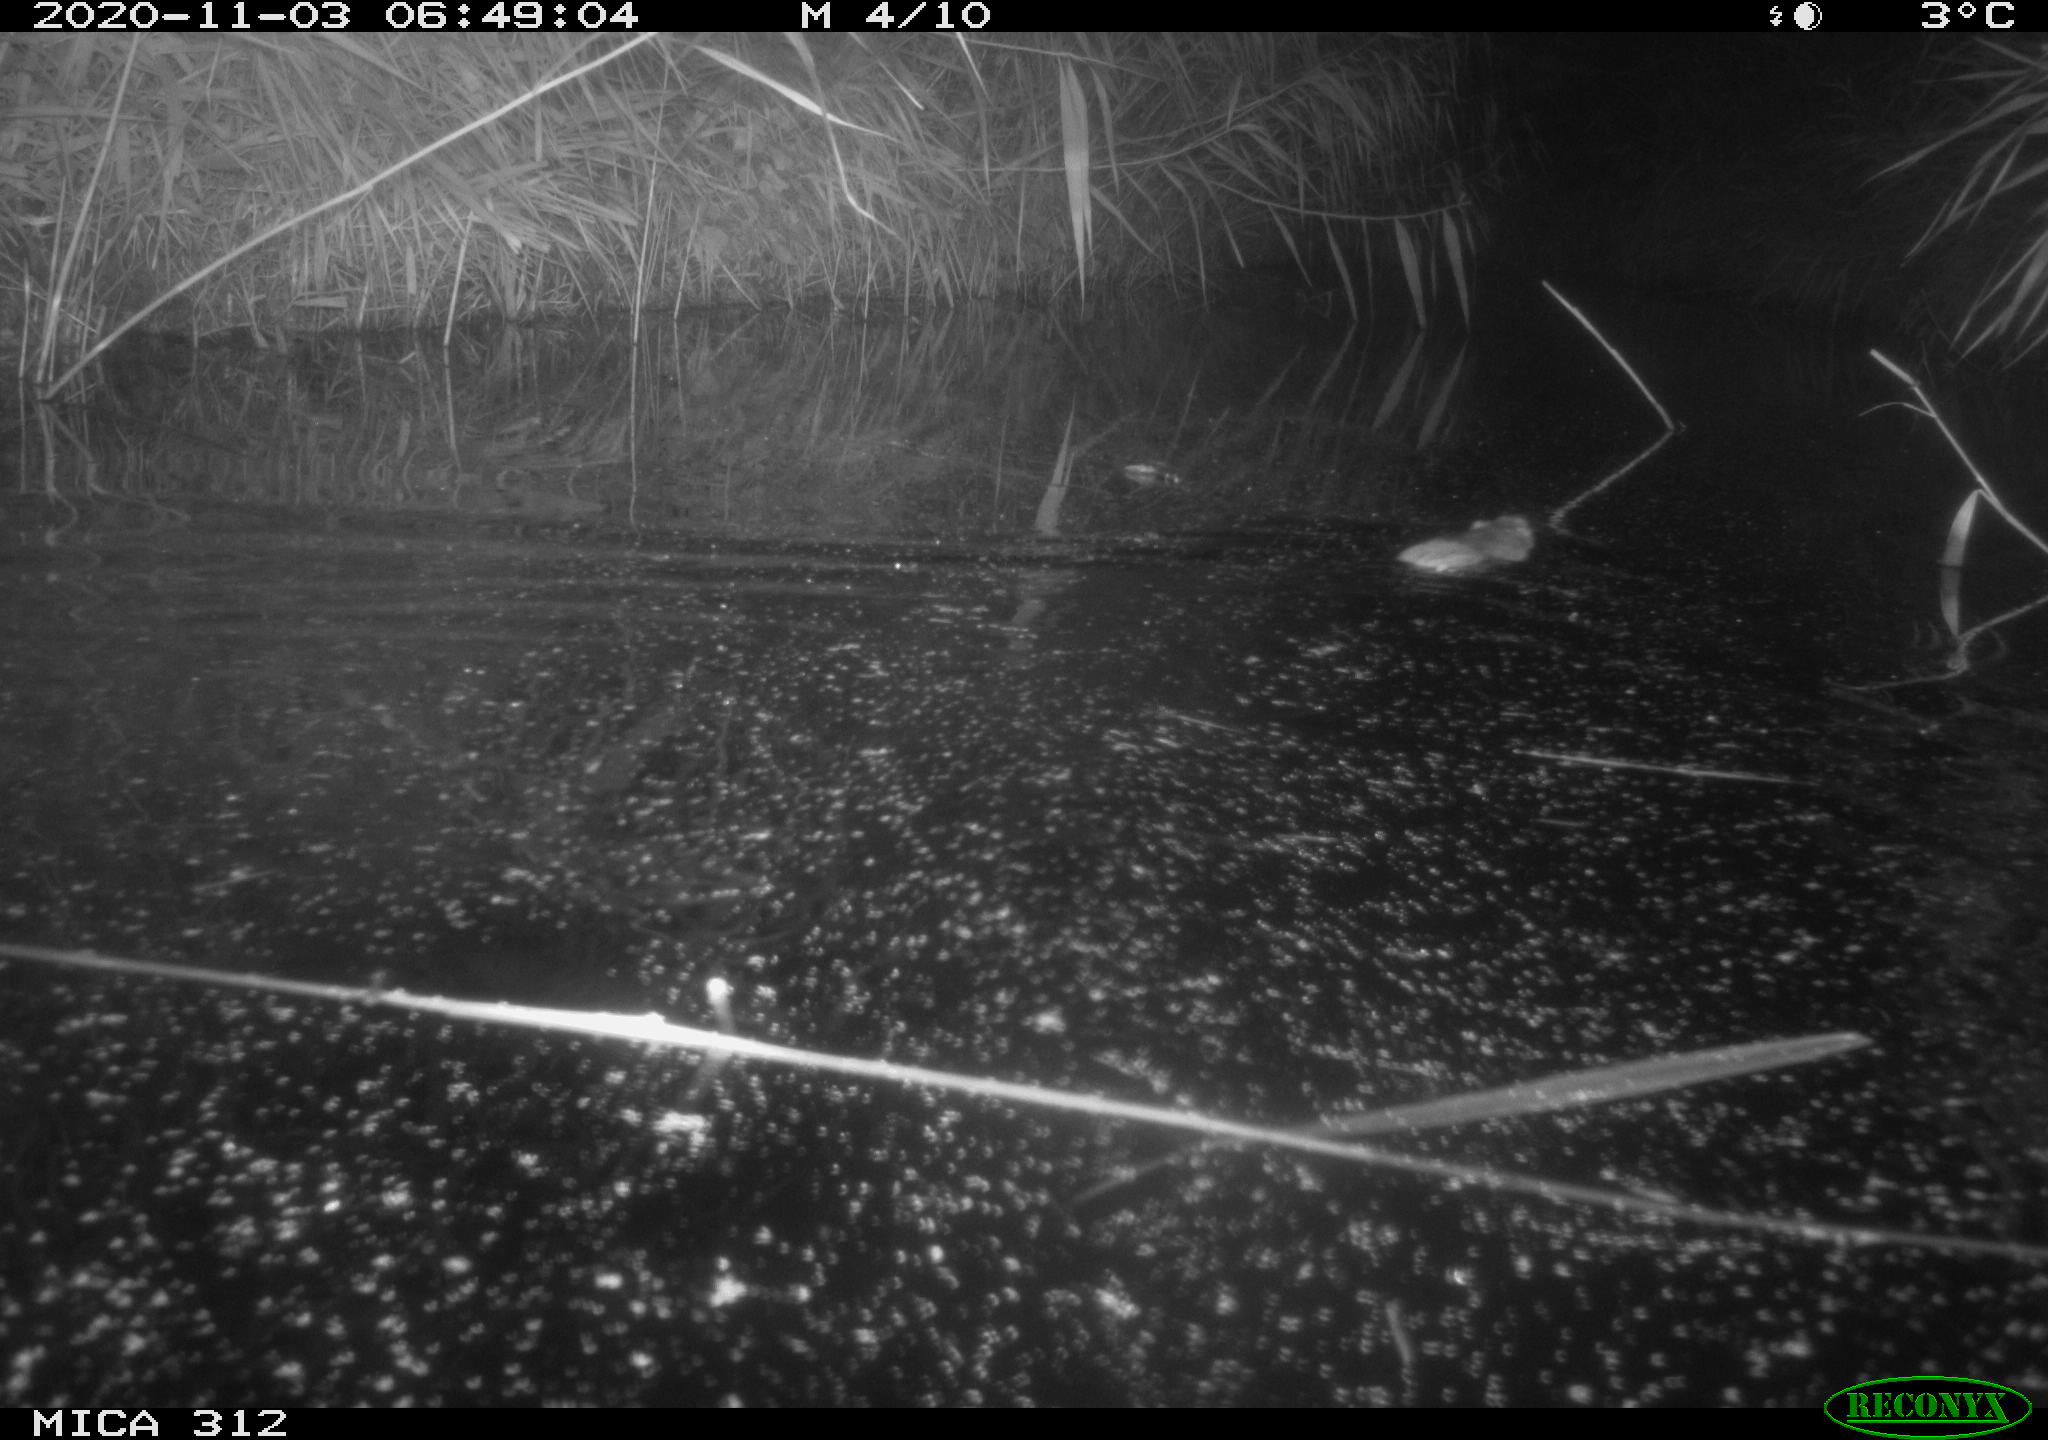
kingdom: Animalia
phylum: Chordata
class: Mammalia
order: Rodentia
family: Cricetidae
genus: Ondatra
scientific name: Ondatra zibethicus
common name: Muskrat
